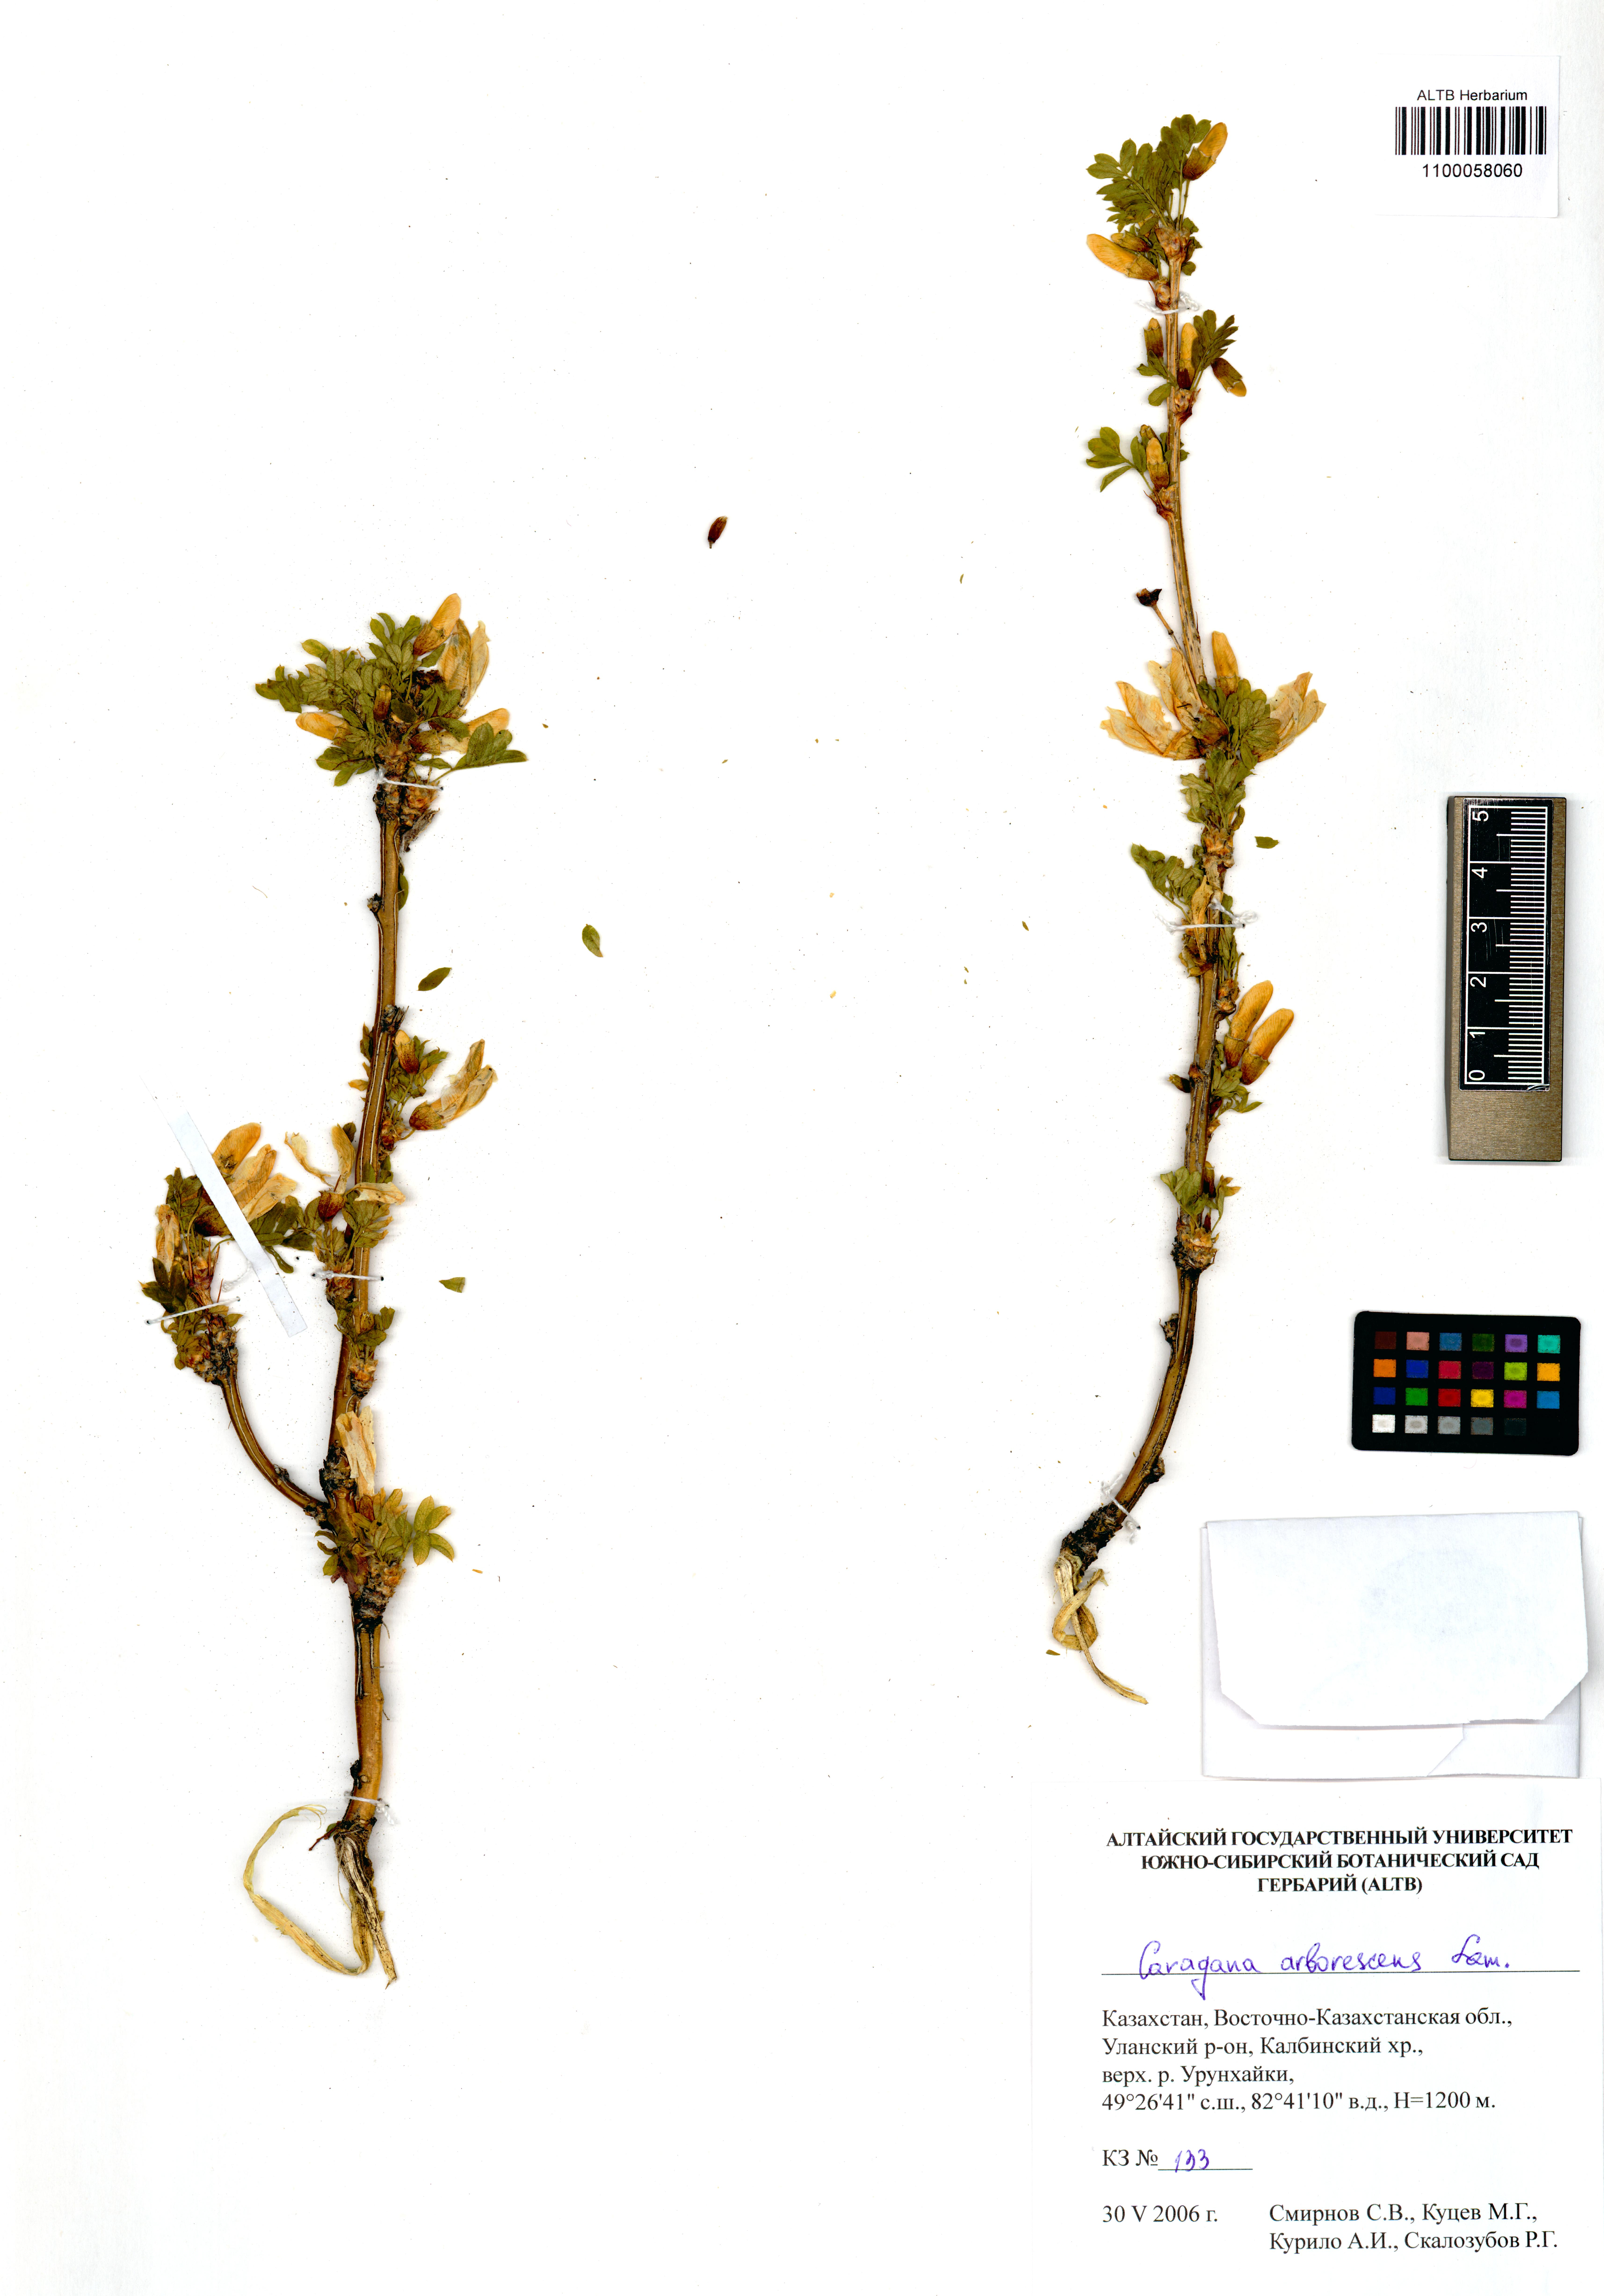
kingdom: Plantae
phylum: Tracheophyta
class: Magnoliopsida
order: Fabales
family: Fabaceae
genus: Caragana
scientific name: Caragana arborescens
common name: Siberian peashrub
